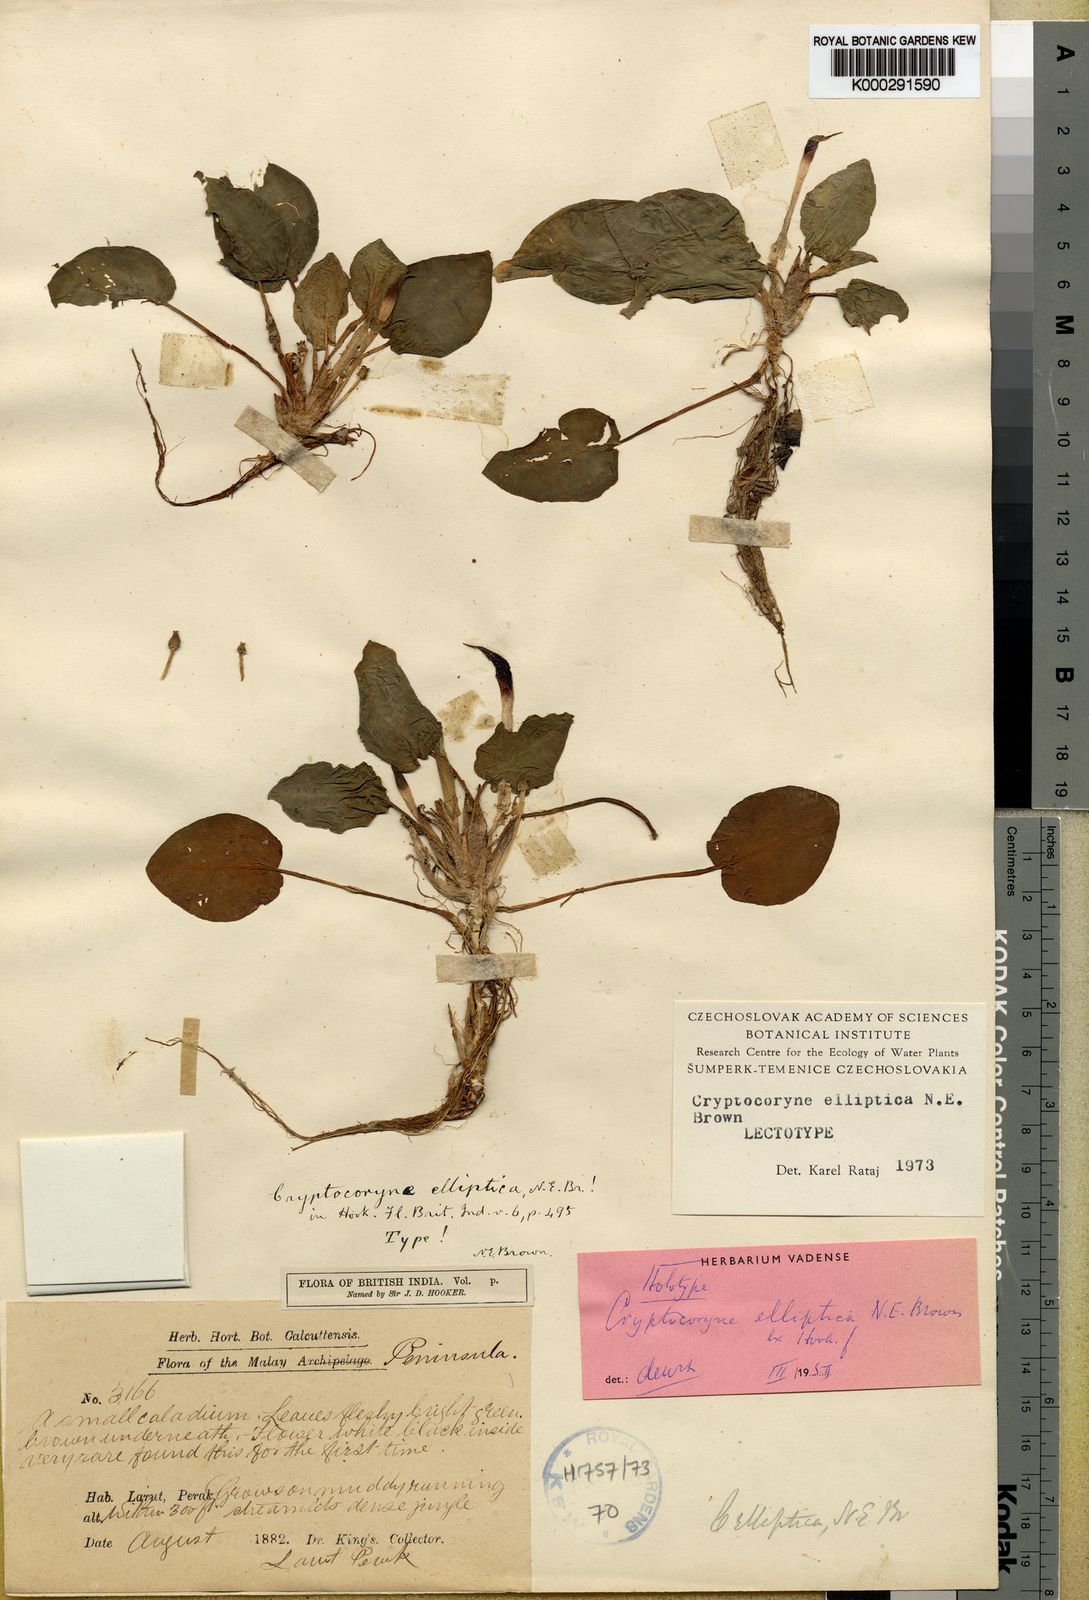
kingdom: Plantae
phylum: Tracheophyta
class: Liliopsida
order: Alismatales
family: Araceae
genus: Cryptocoryne
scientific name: Cryptocoryne elliptica
